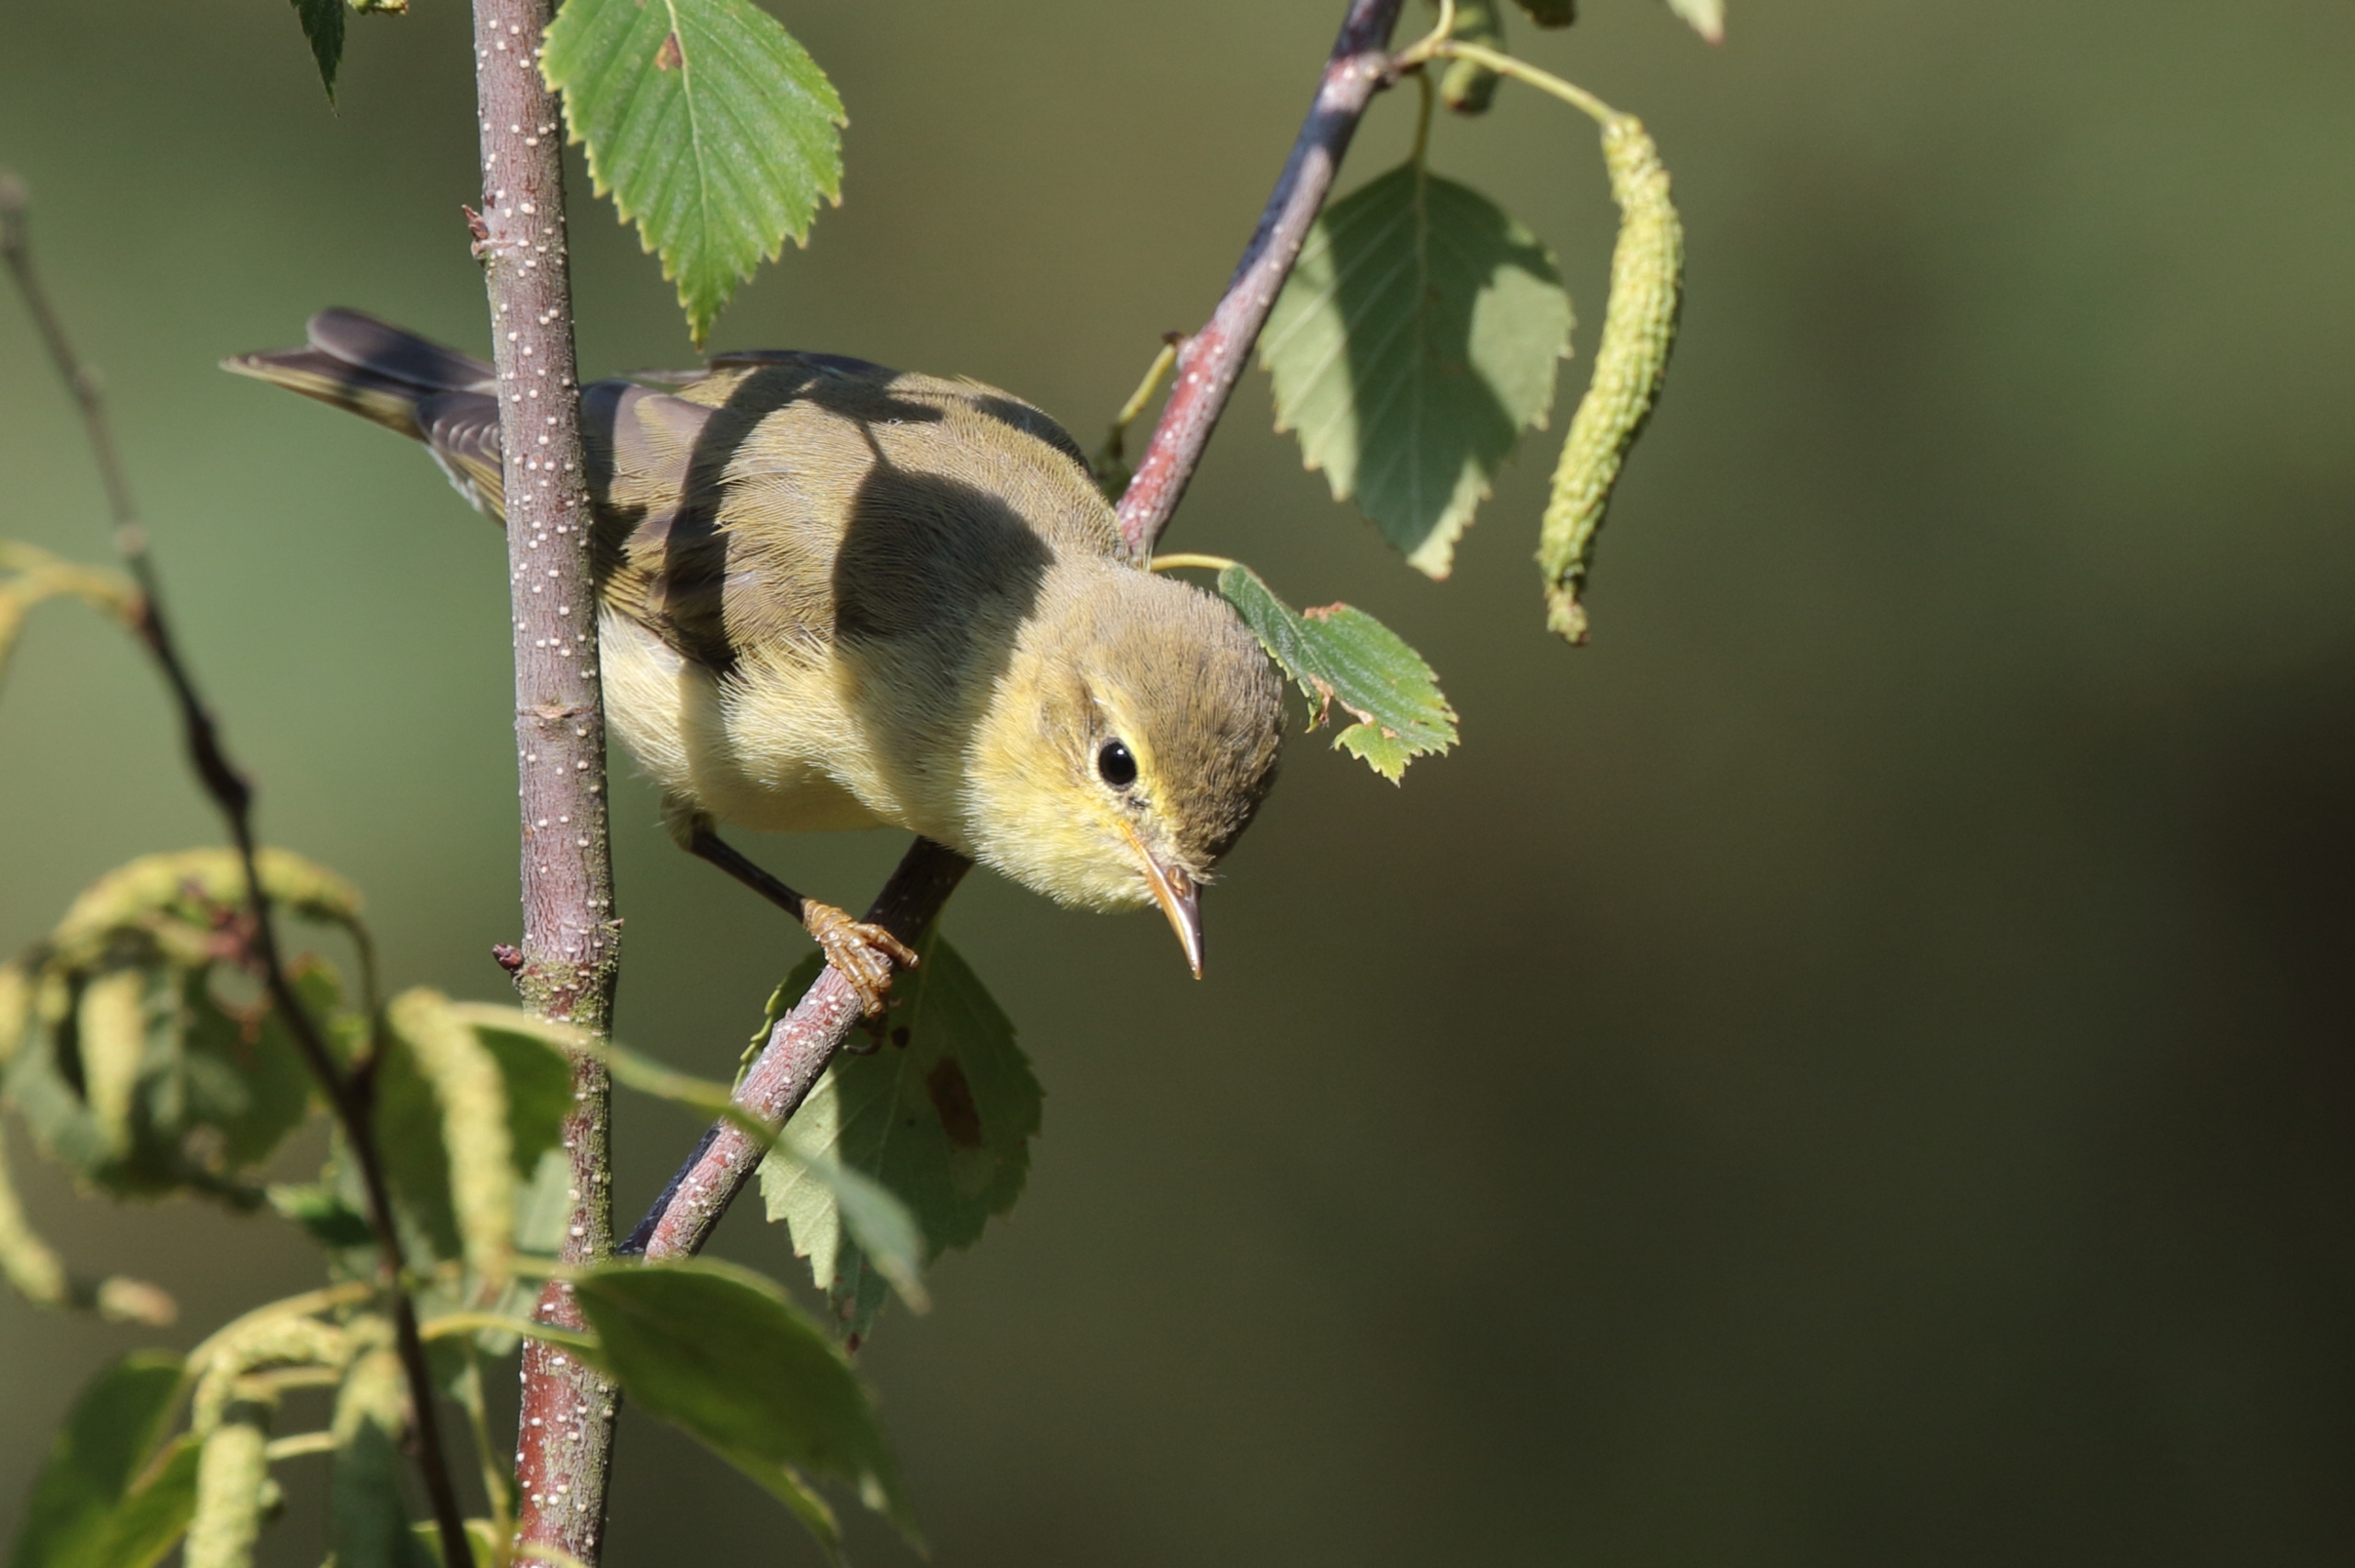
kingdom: Animalia
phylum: Chordata
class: Aves
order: Passeriformes
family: Phylloscopidae
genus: Phylloscopus
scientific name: Phylloscopus collybita
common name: Gransanger
